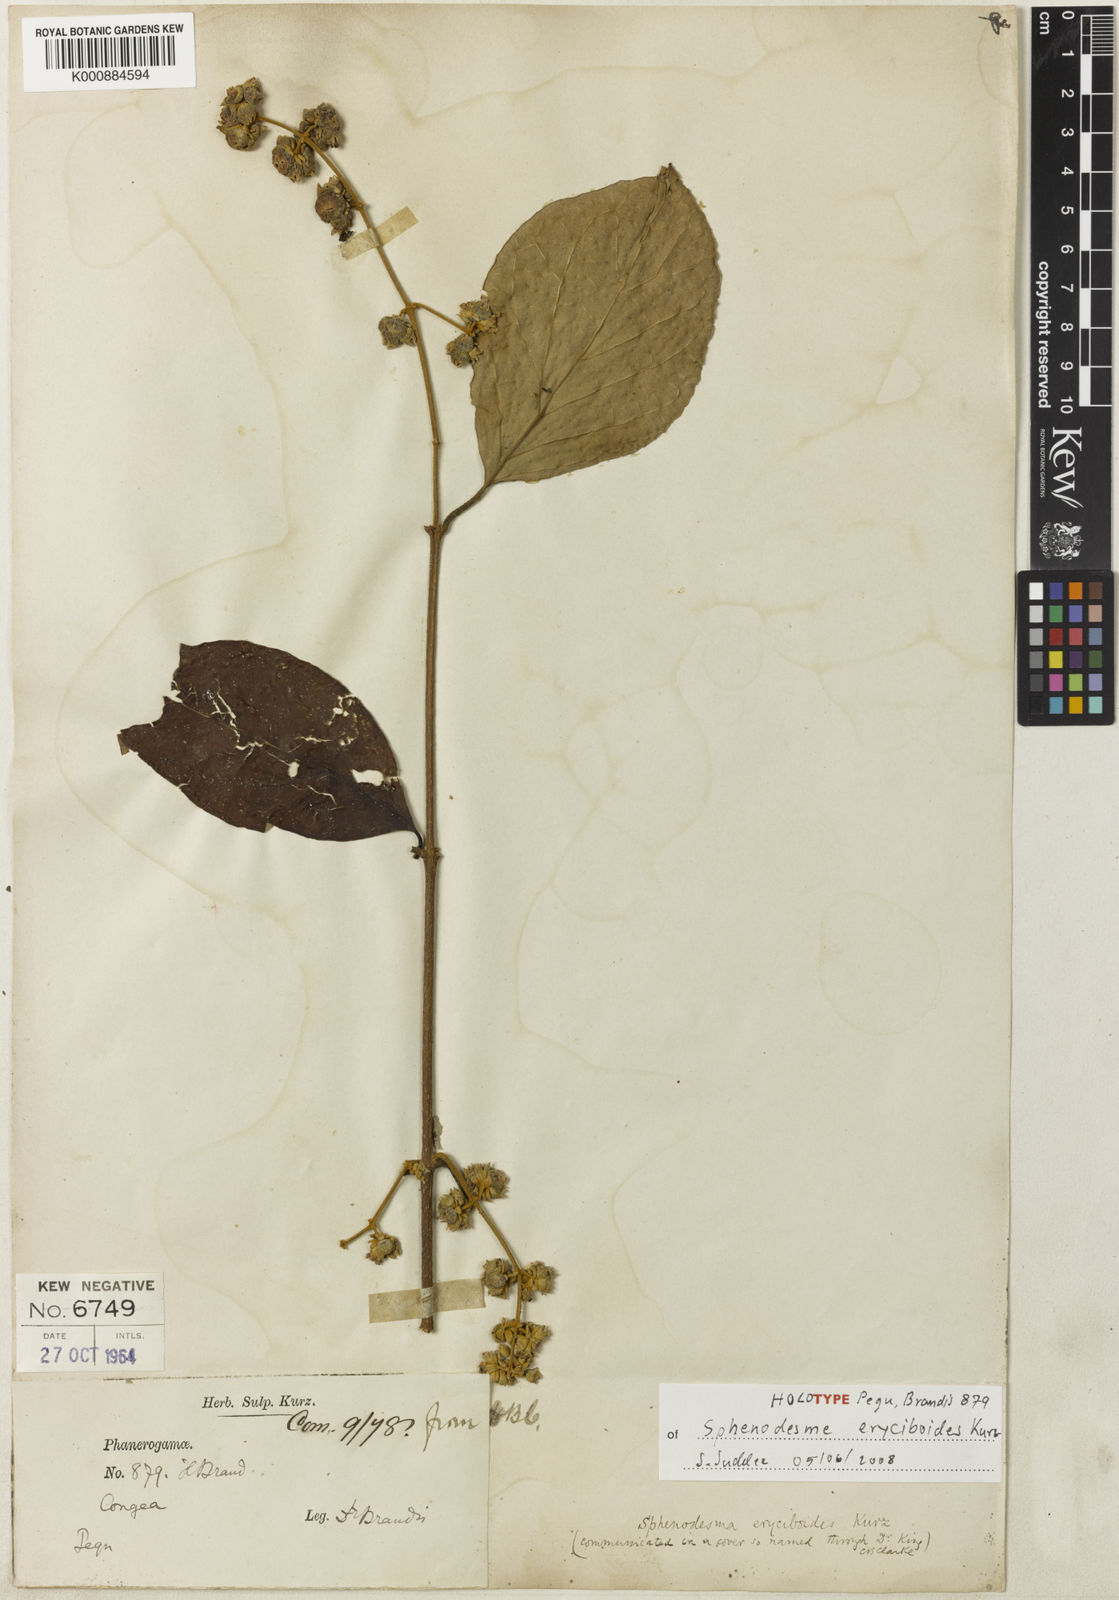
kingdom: Plantae
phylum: Tracheophyta
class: Magnoliopsida
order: Lamiales
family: Lamiaceae
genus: Sphenodesme
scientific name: Sphenodesme eryciboides
